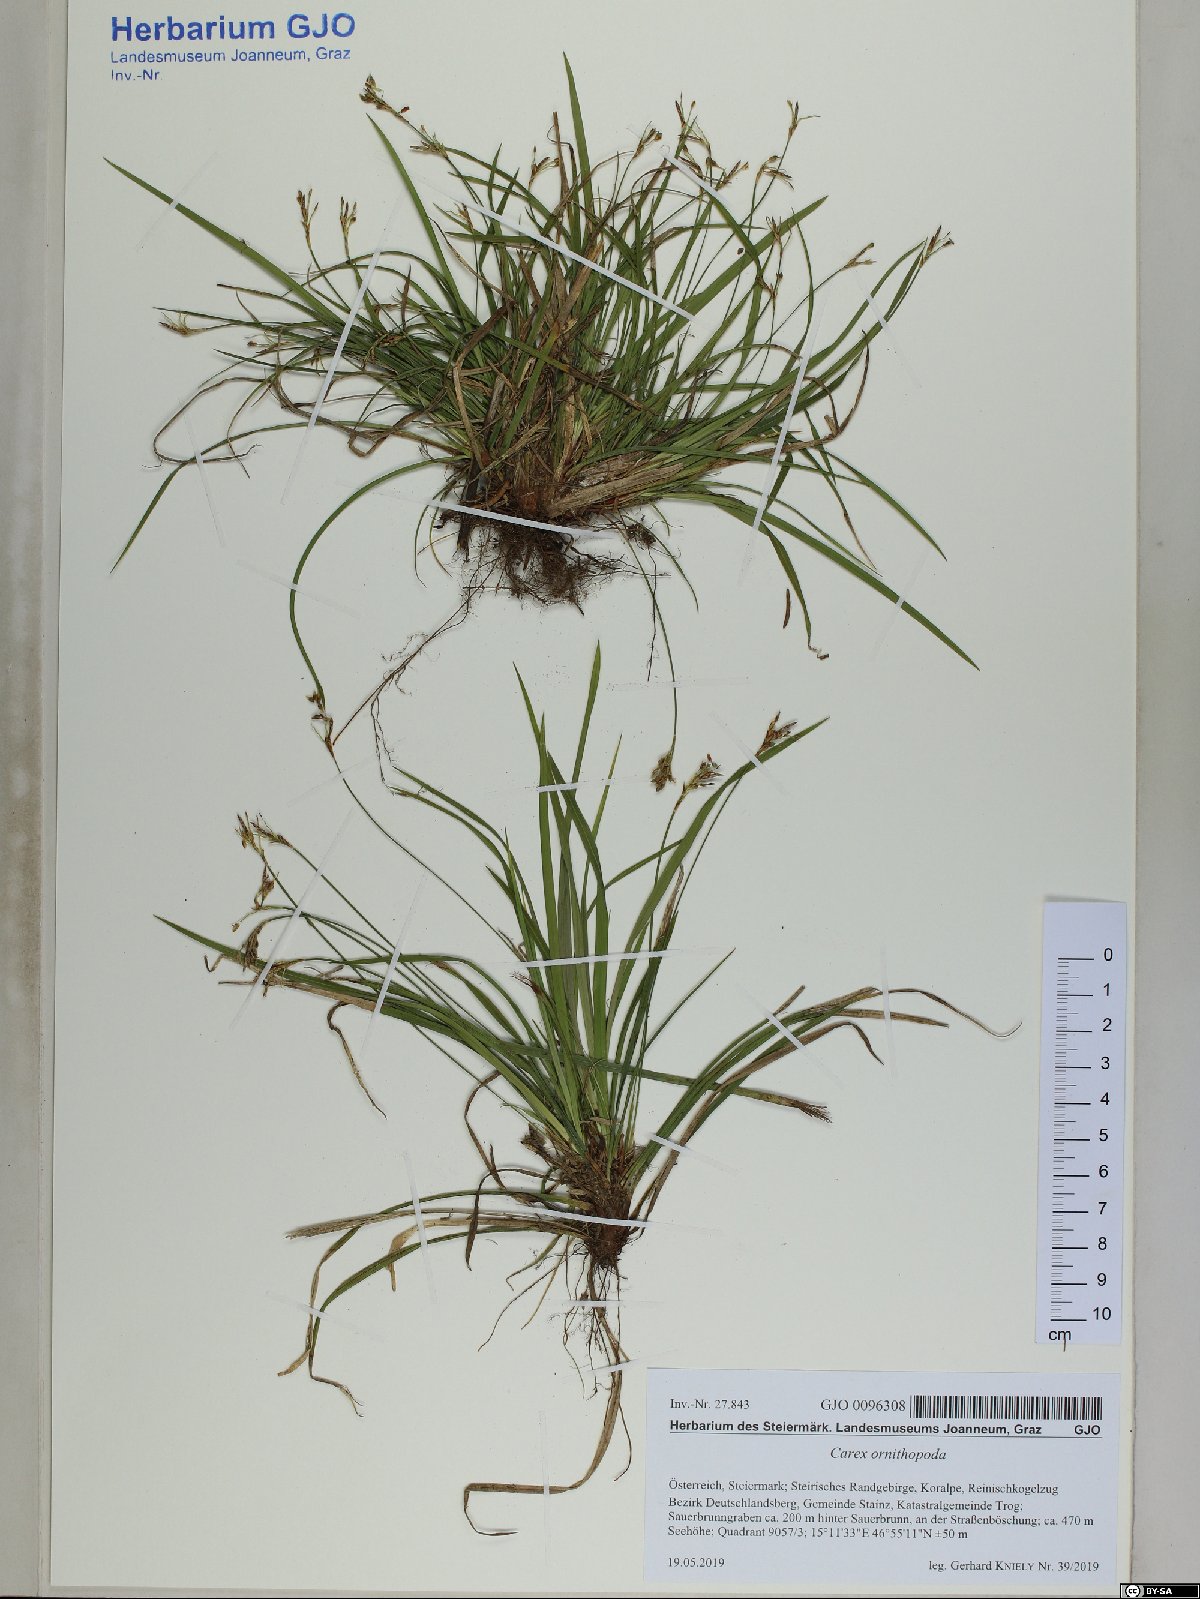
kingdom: Plantae
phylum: Tracheophyta
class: Liliopsida
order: Poales
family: Cyperaceae
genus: Carex
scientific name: Carex ornithopoda
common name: Bird's-foot sedge
